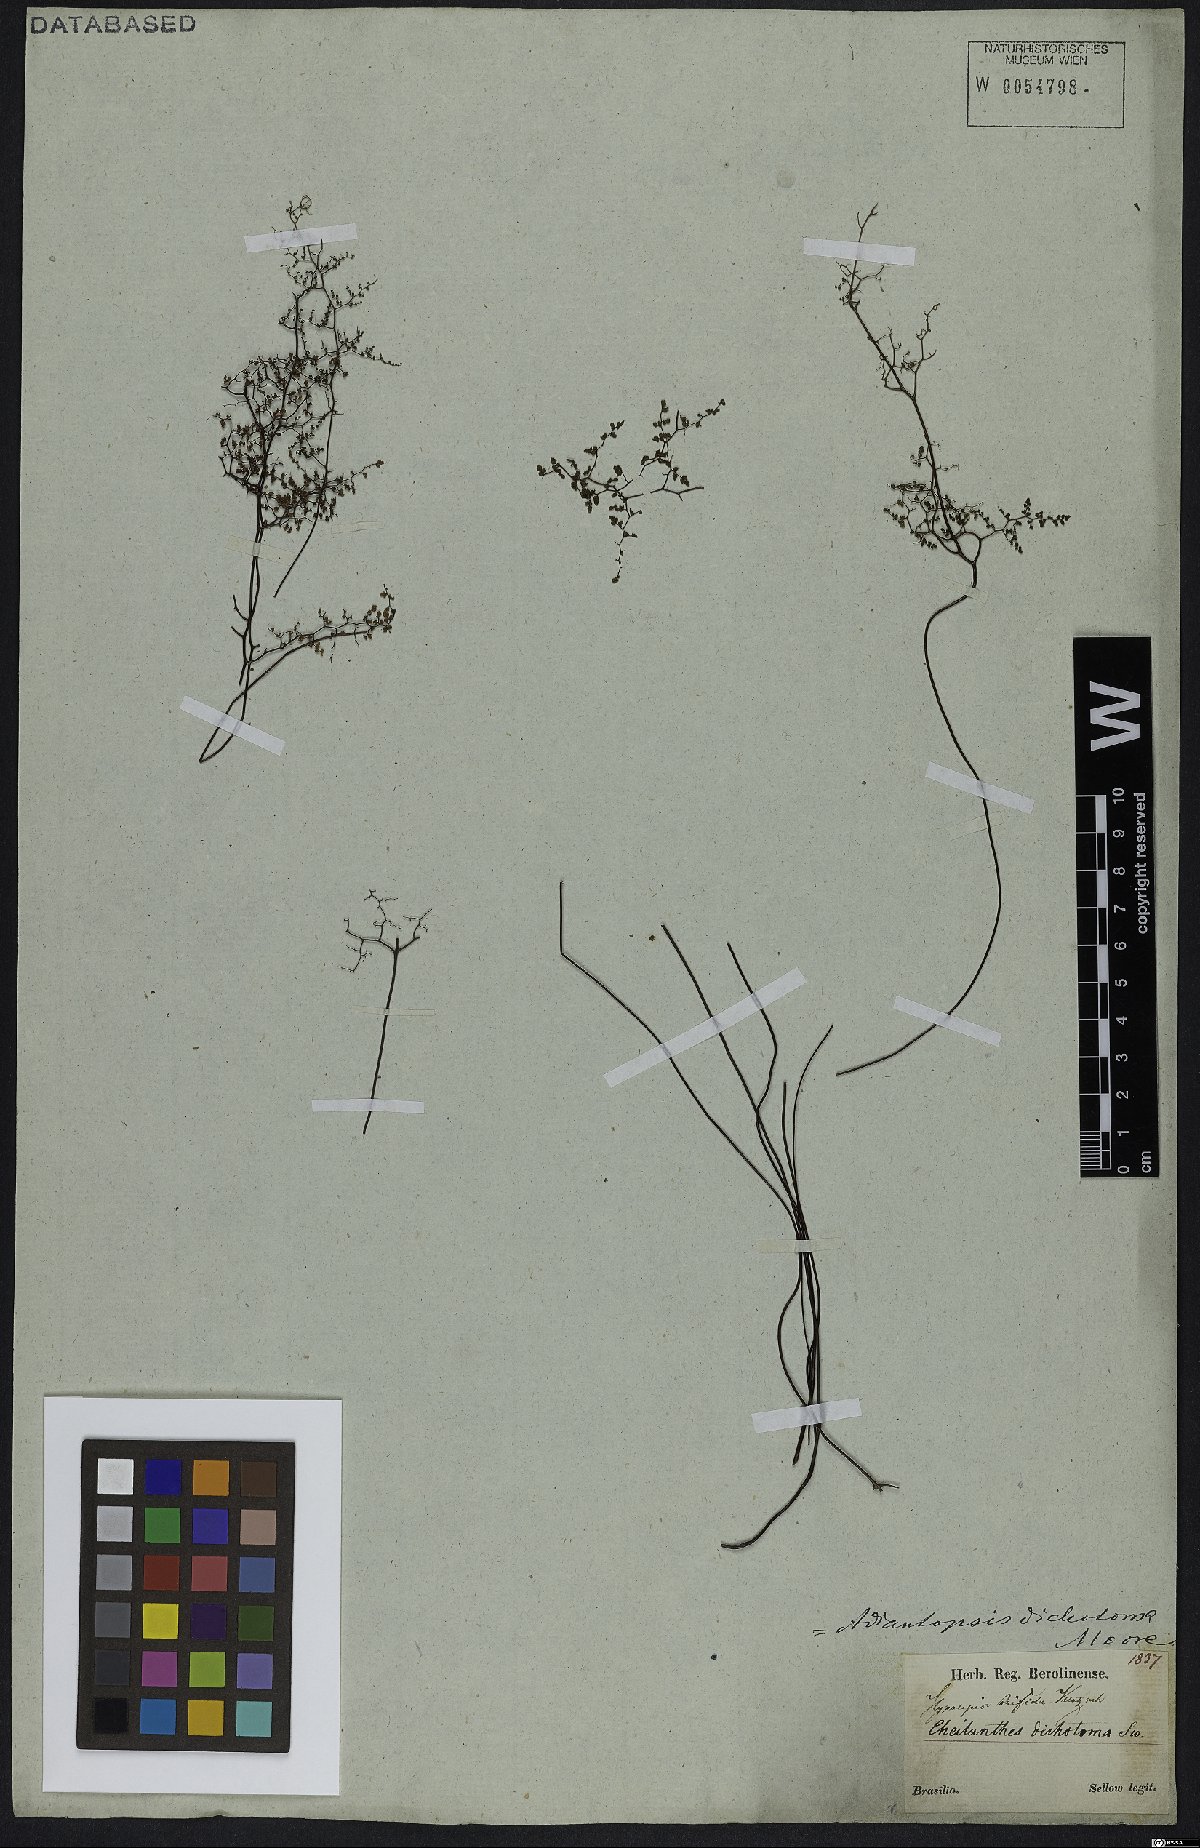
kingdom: Plantae
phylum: Tracheophyta
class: Polypodiopsida
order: Polypodiales
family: Pteridaceae
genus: Adiantopsis
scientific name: Adiantopsis dichotoma
